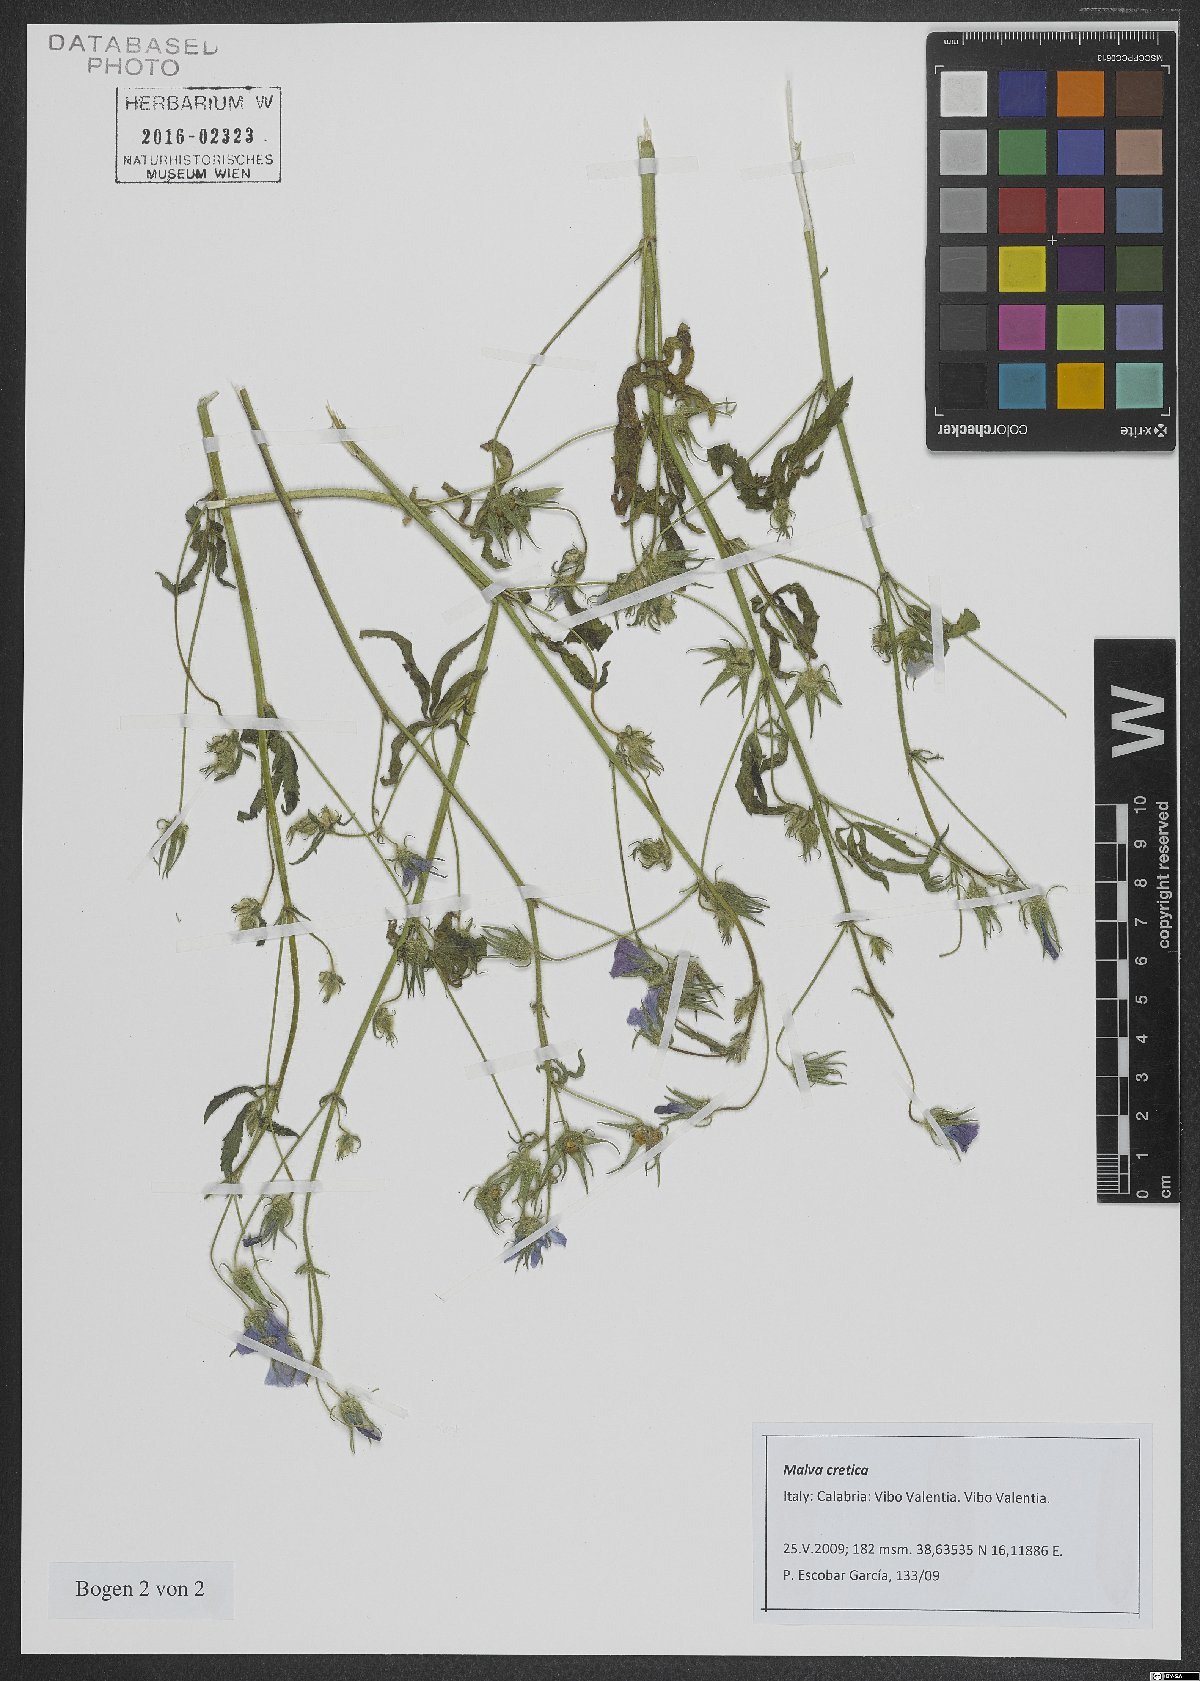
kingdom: Plantae
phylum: Tracheophyta
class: Magnoliopsida
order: Malvales
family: Malvaceae
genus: Malva
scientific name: Malva cretica
